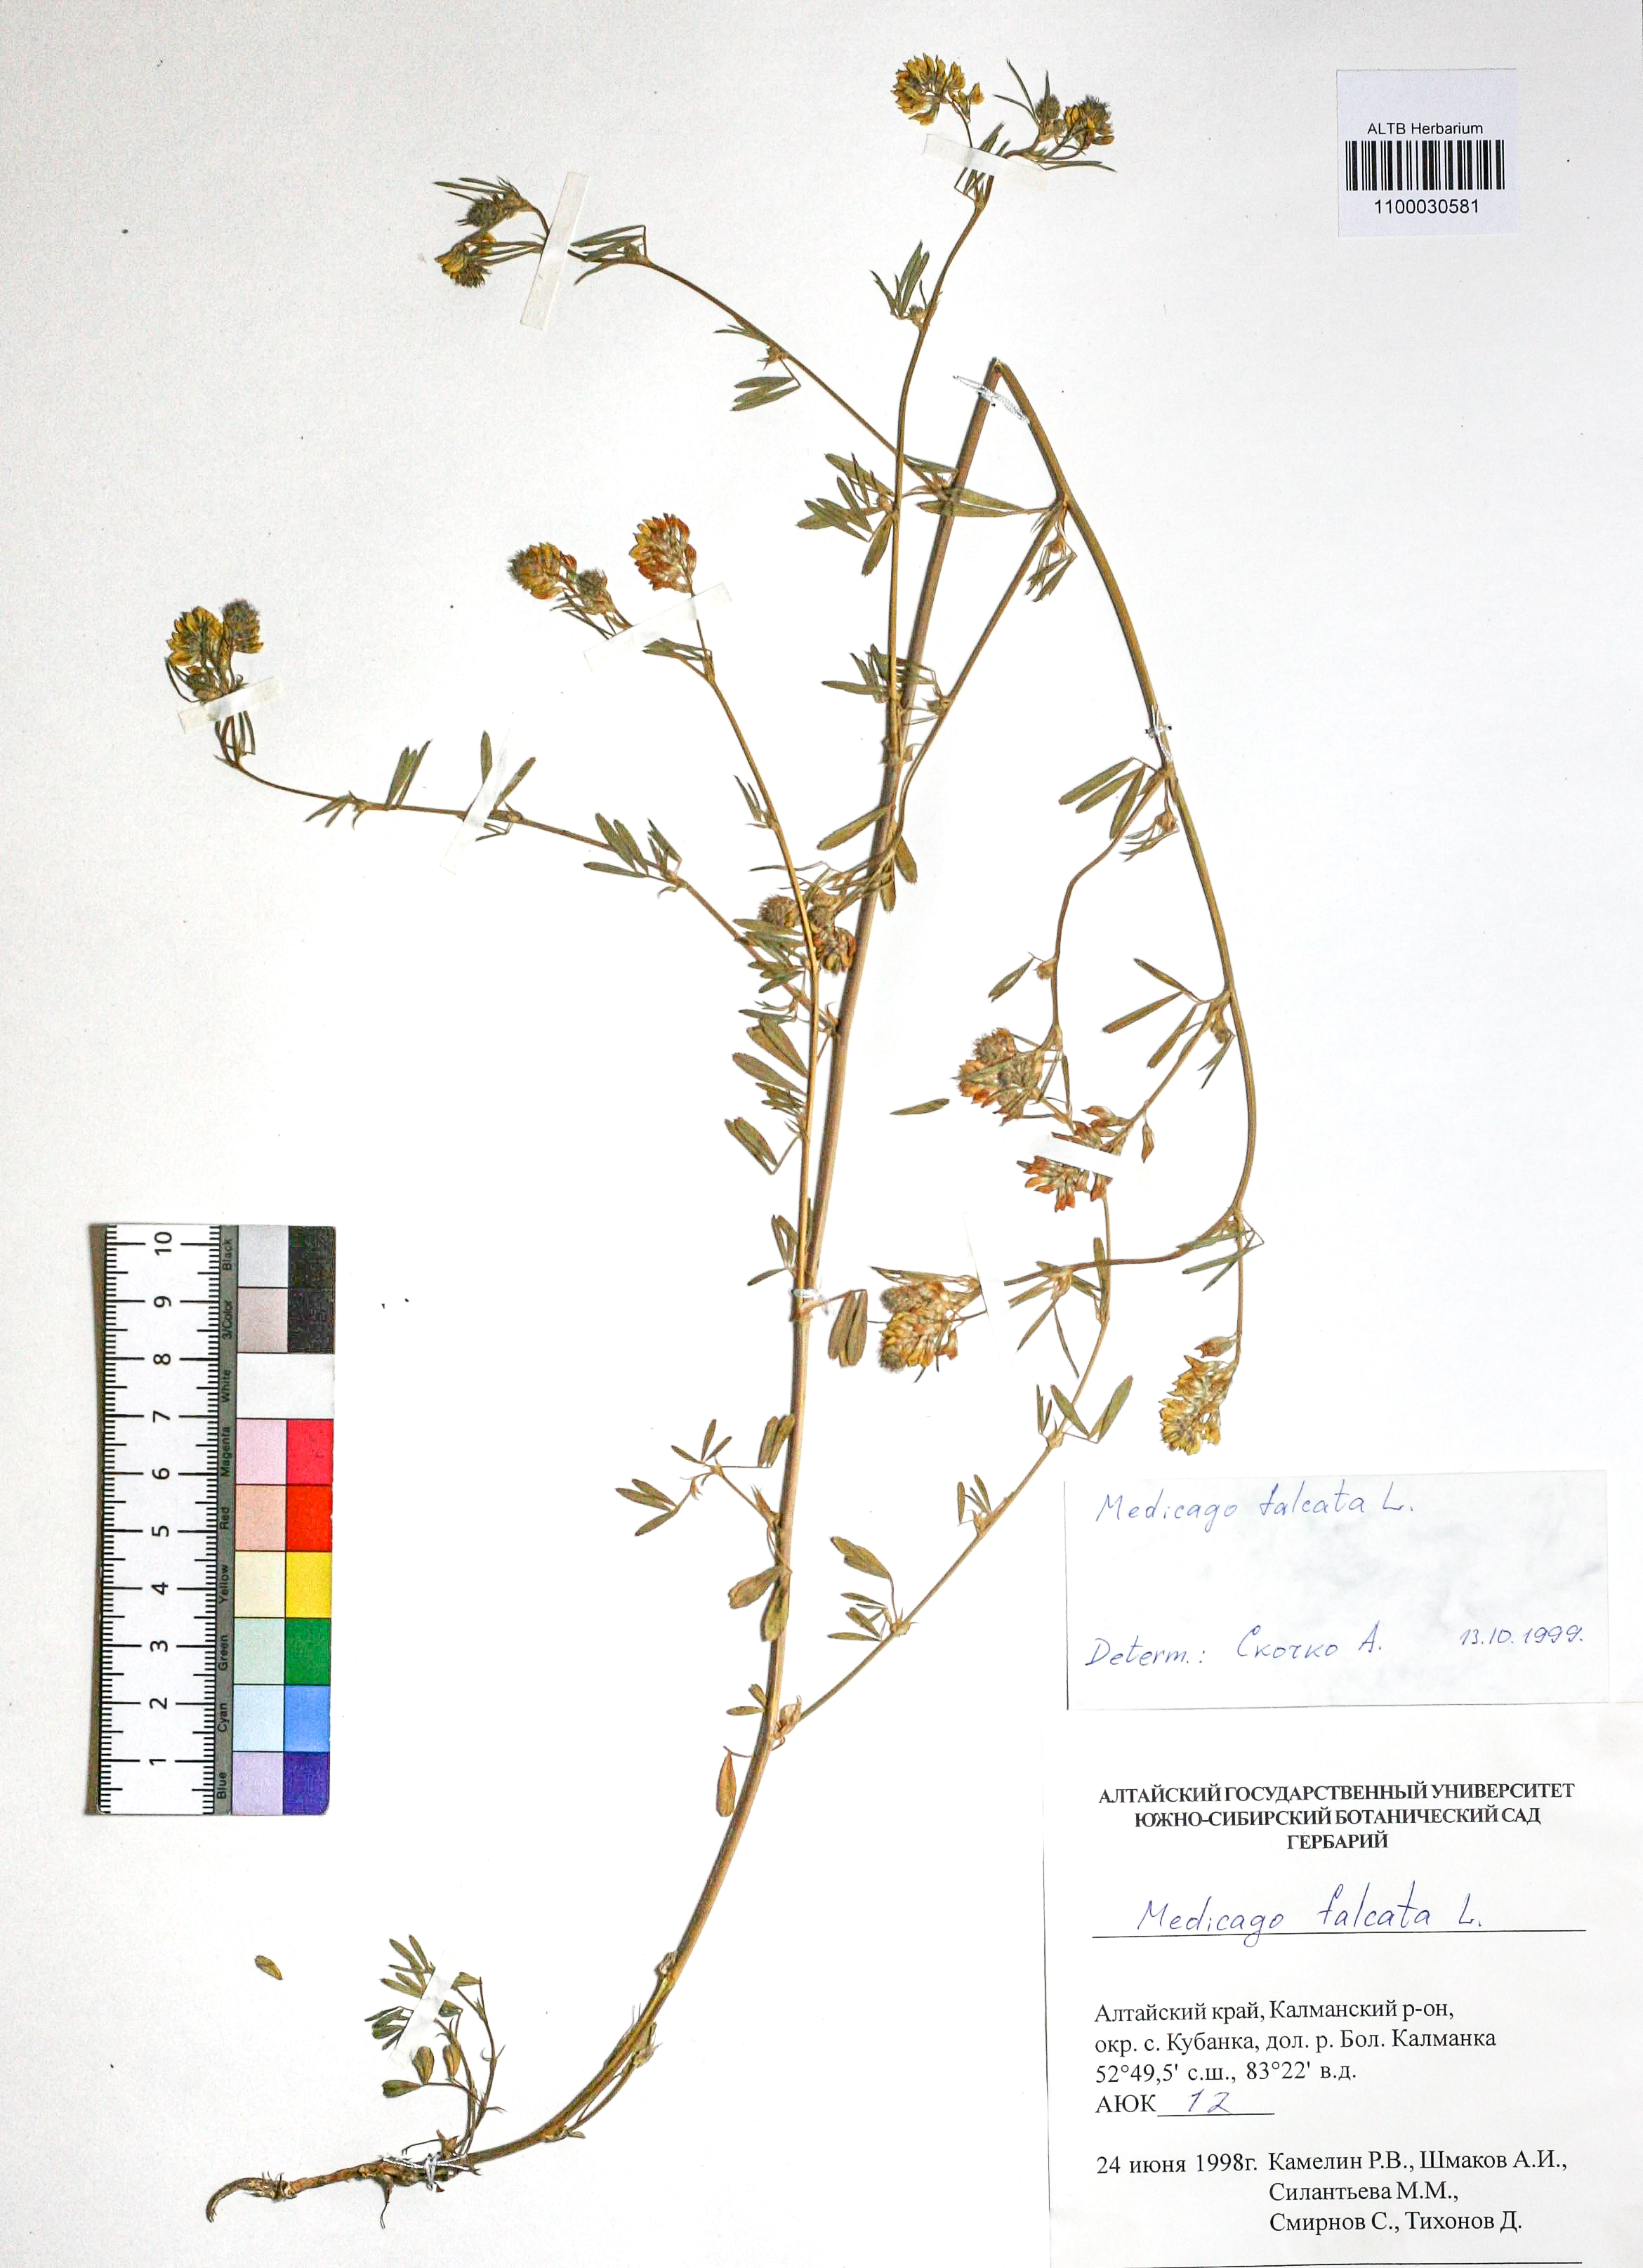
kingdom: Plantae
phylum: Tracheophyta
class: Magnoliopsida
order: Fabales
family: Fabaceae
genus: Medicago
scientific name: Medicago falcata
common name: Sickle medick
